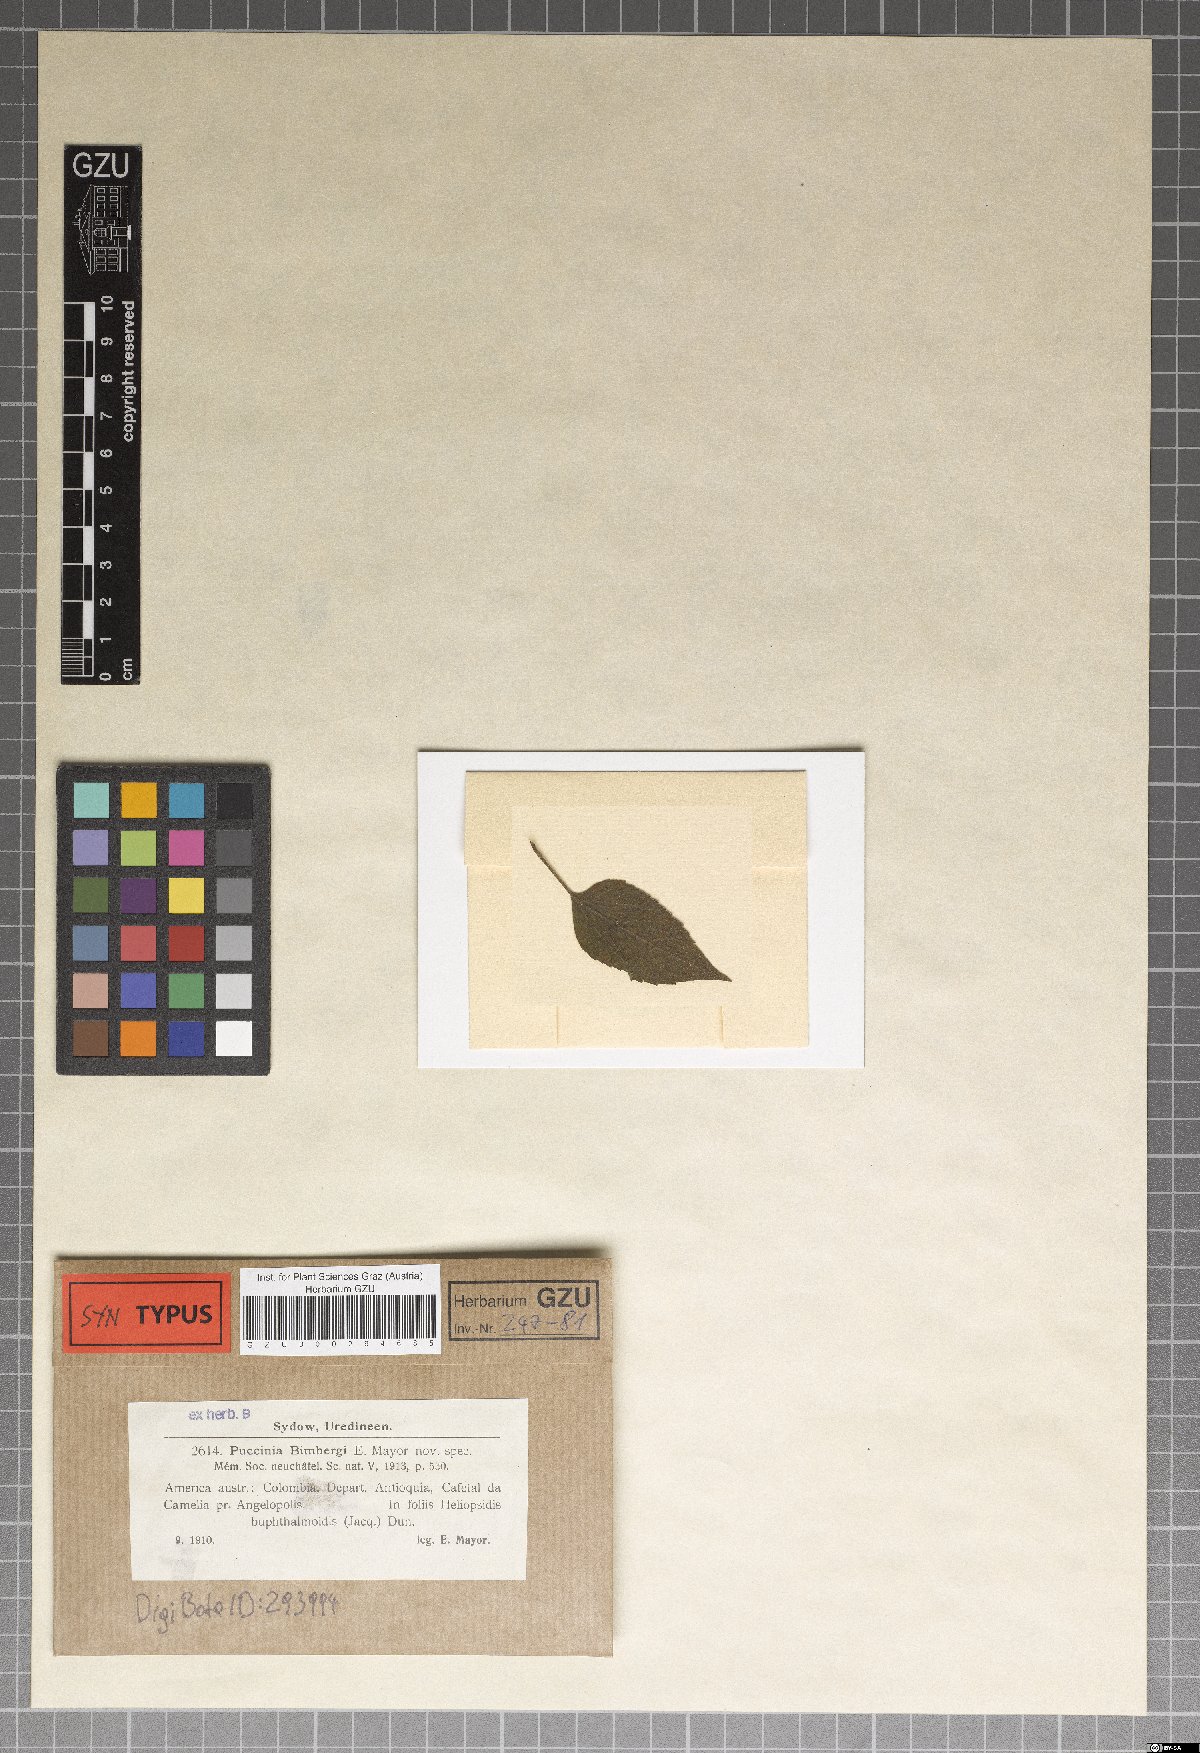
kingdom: Fungi
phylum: Basidiomycota
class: Pucciniomycetes
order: Pucciniales
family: Pucciniaceae
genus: Puccinia
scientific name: Puccinia bimbergii
